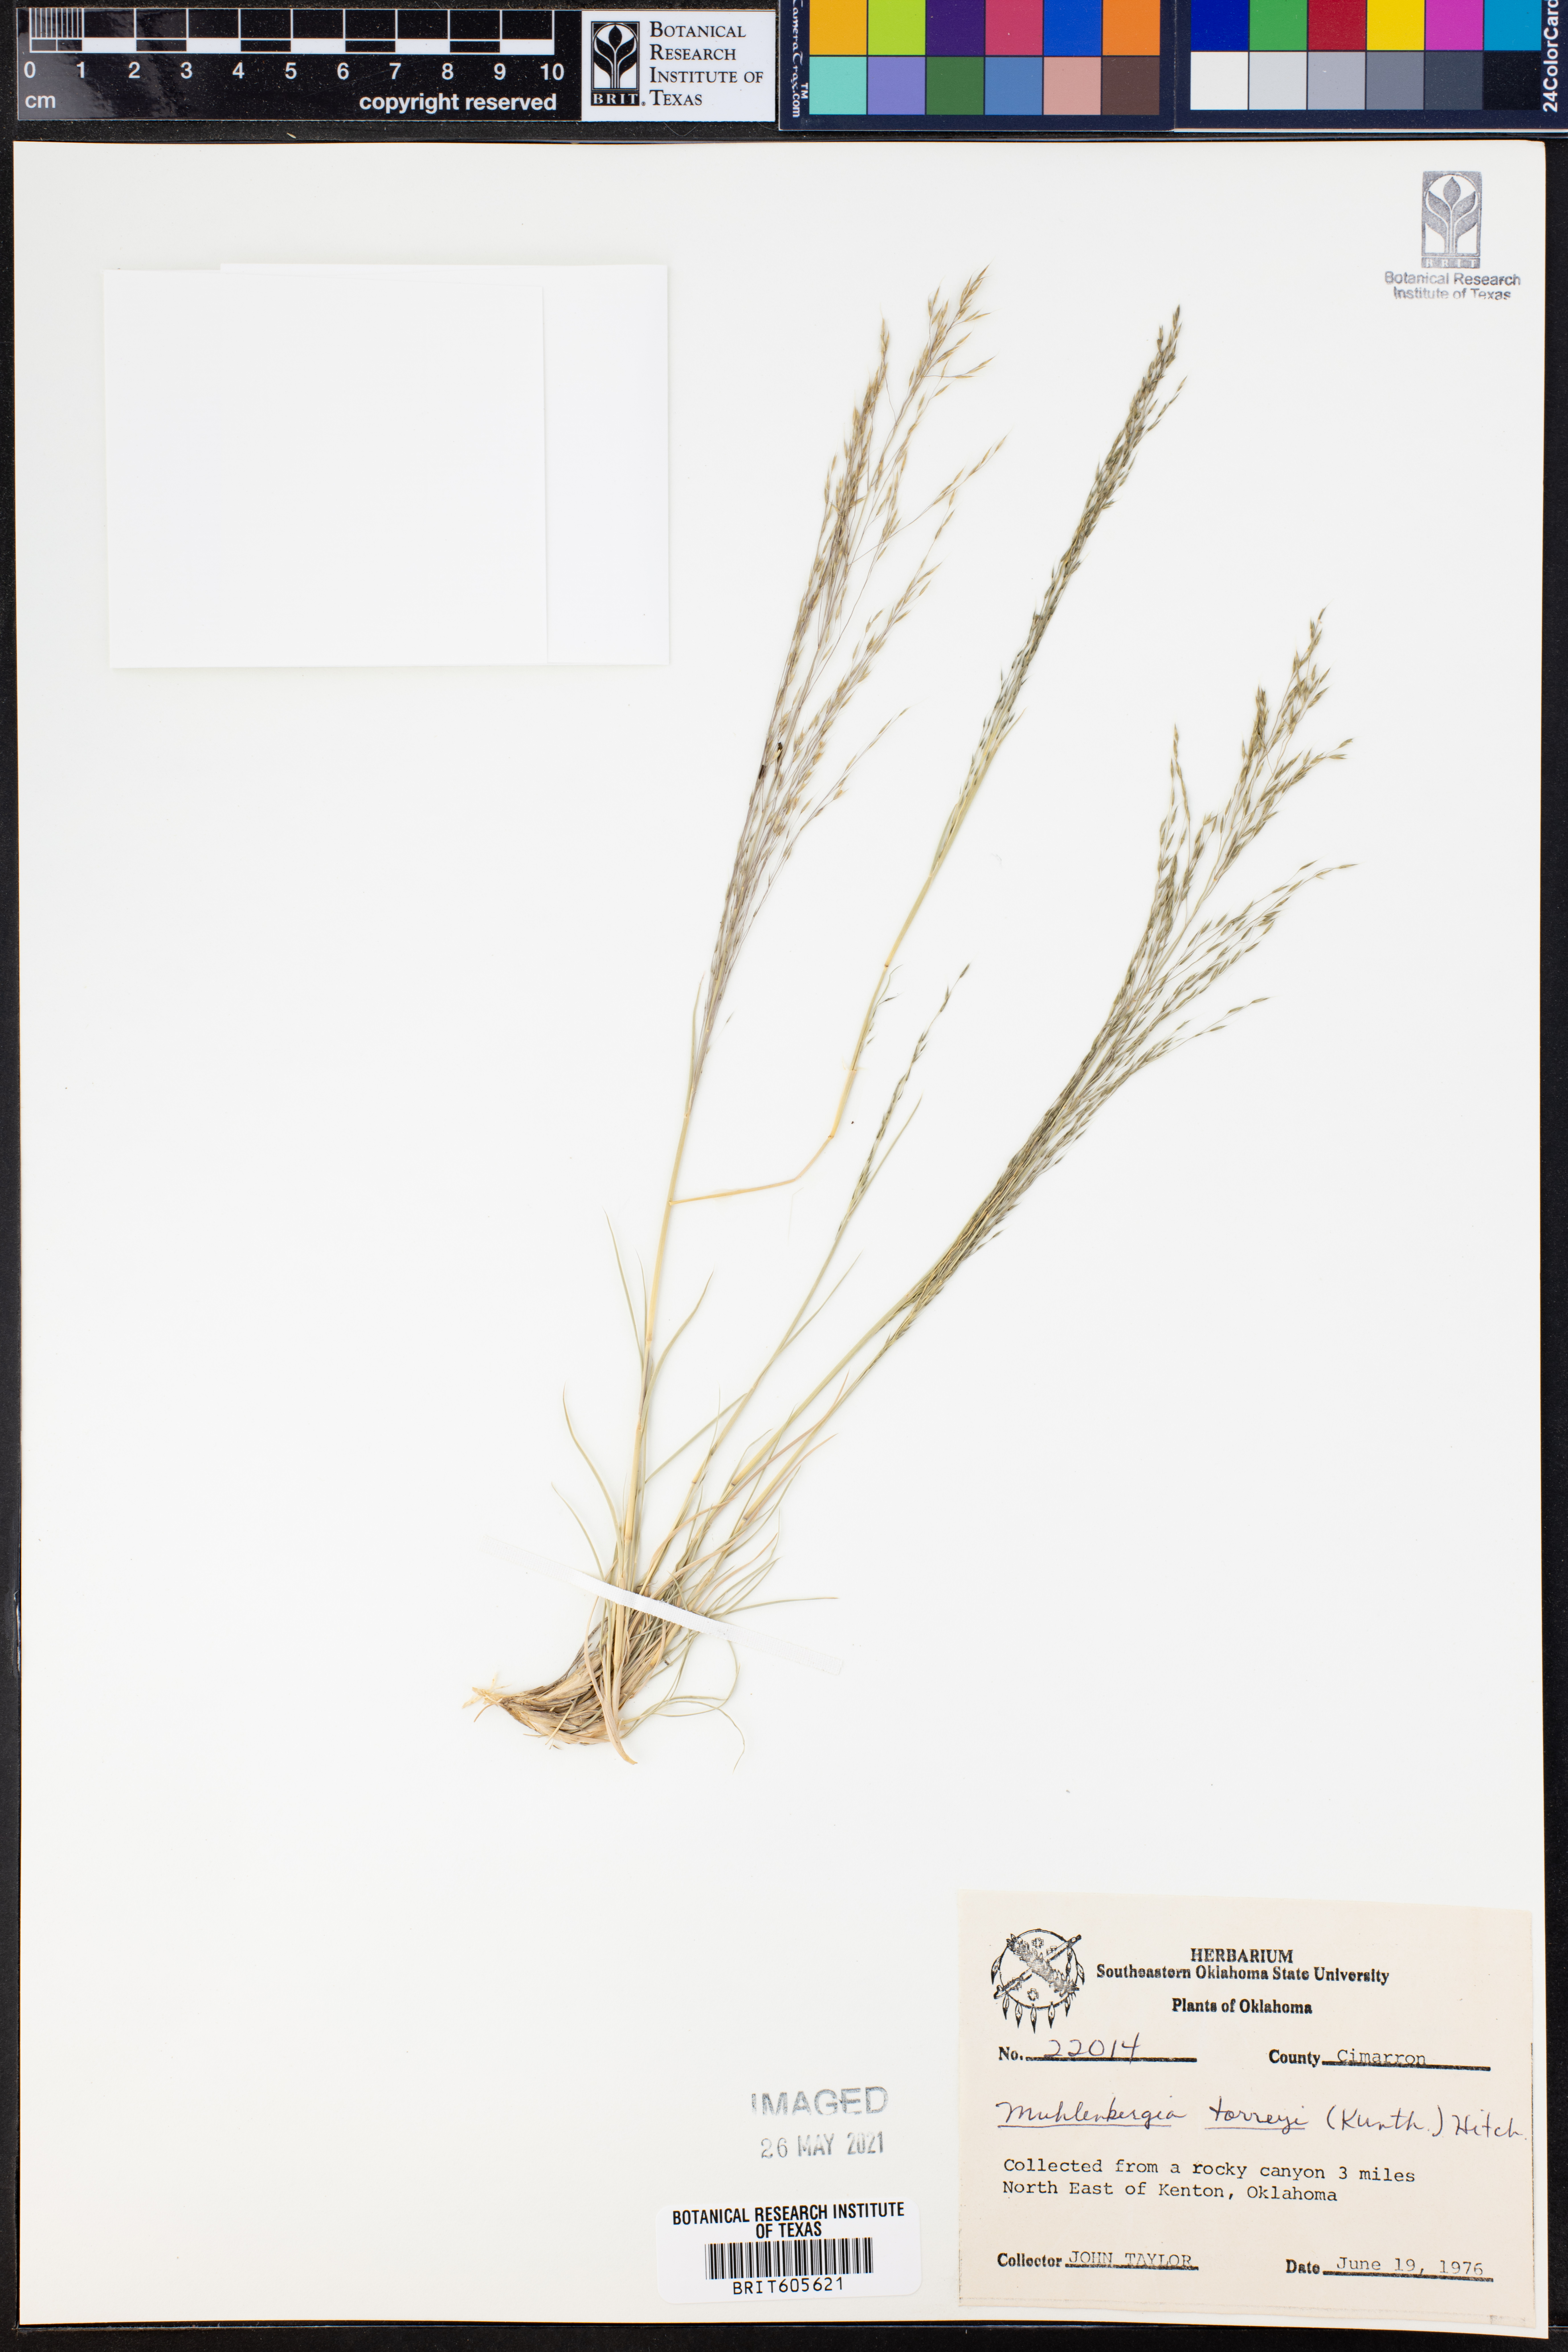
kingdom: Plantae
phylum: Tracheophyta
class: Liliopsida
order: Poales
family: Poaceae
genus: Muhlenbergia
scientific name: Muhlenbergia torreyi
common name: Ring grass
